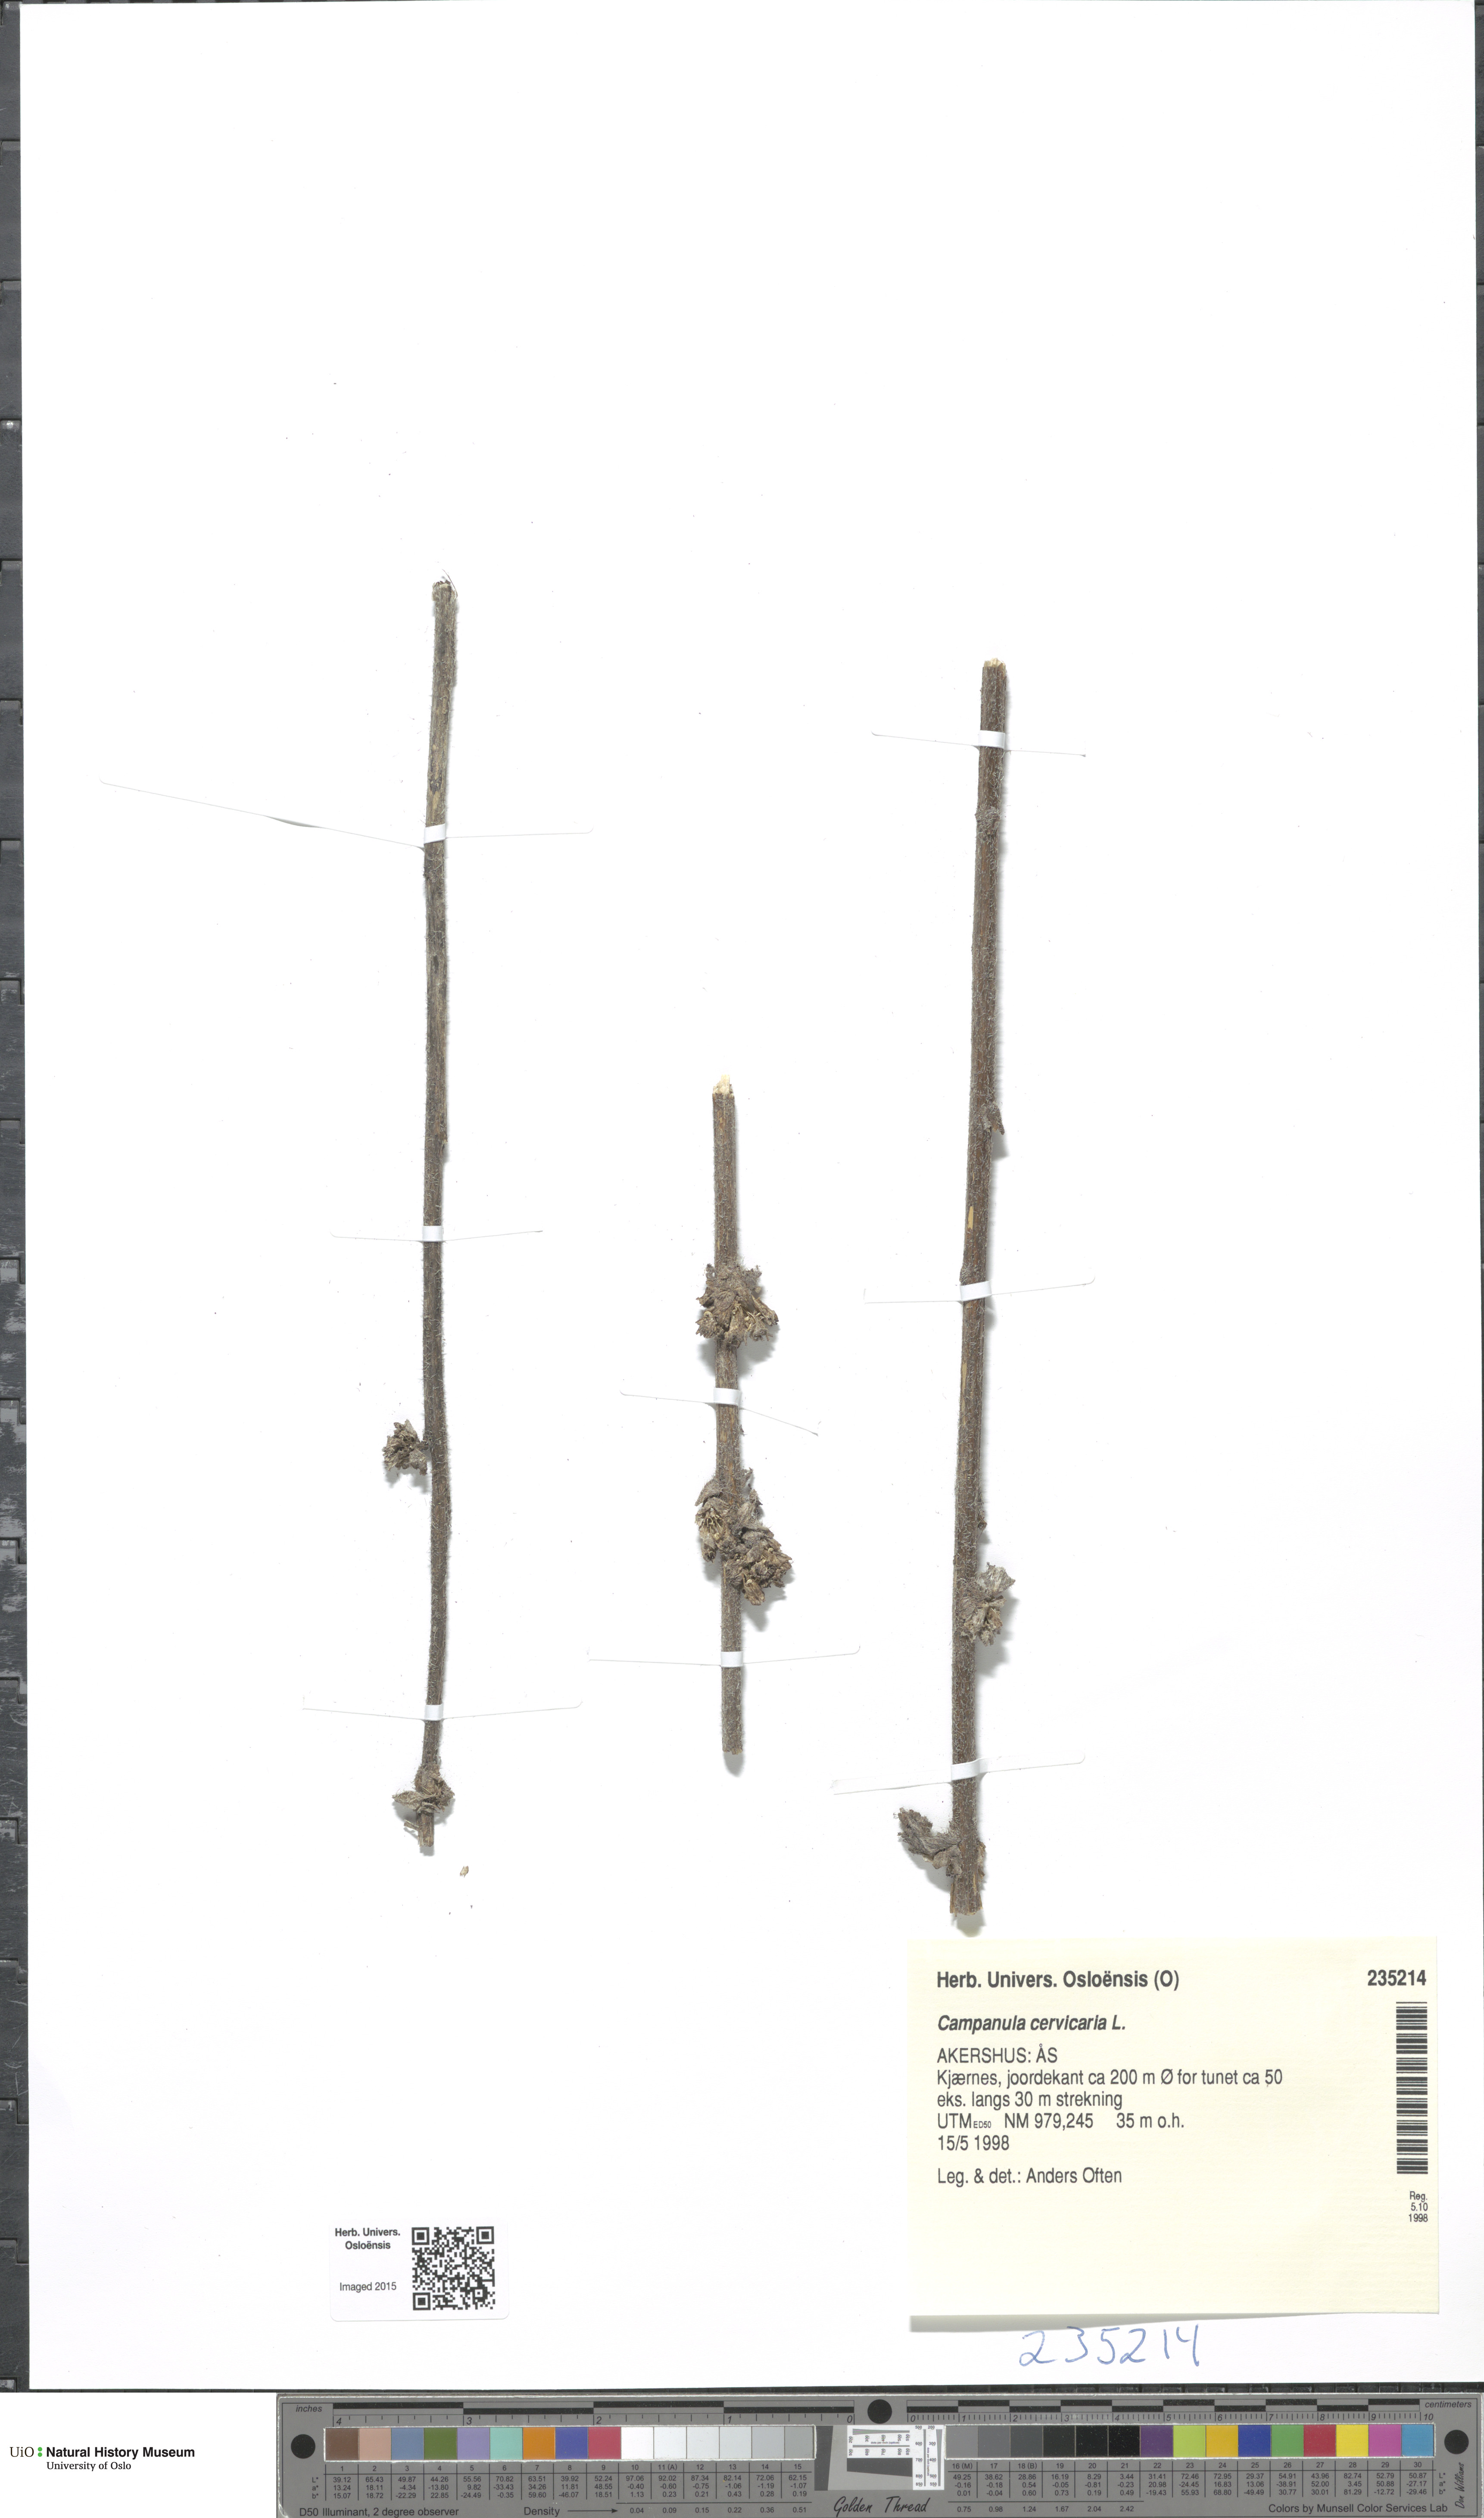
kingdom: Plantae
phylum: Tracheophyta
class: Magnoliopsida
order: Asterales
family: Campanulaceae
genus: Campanula
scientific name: Campanula cervicaria
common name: Bristly bellflower
